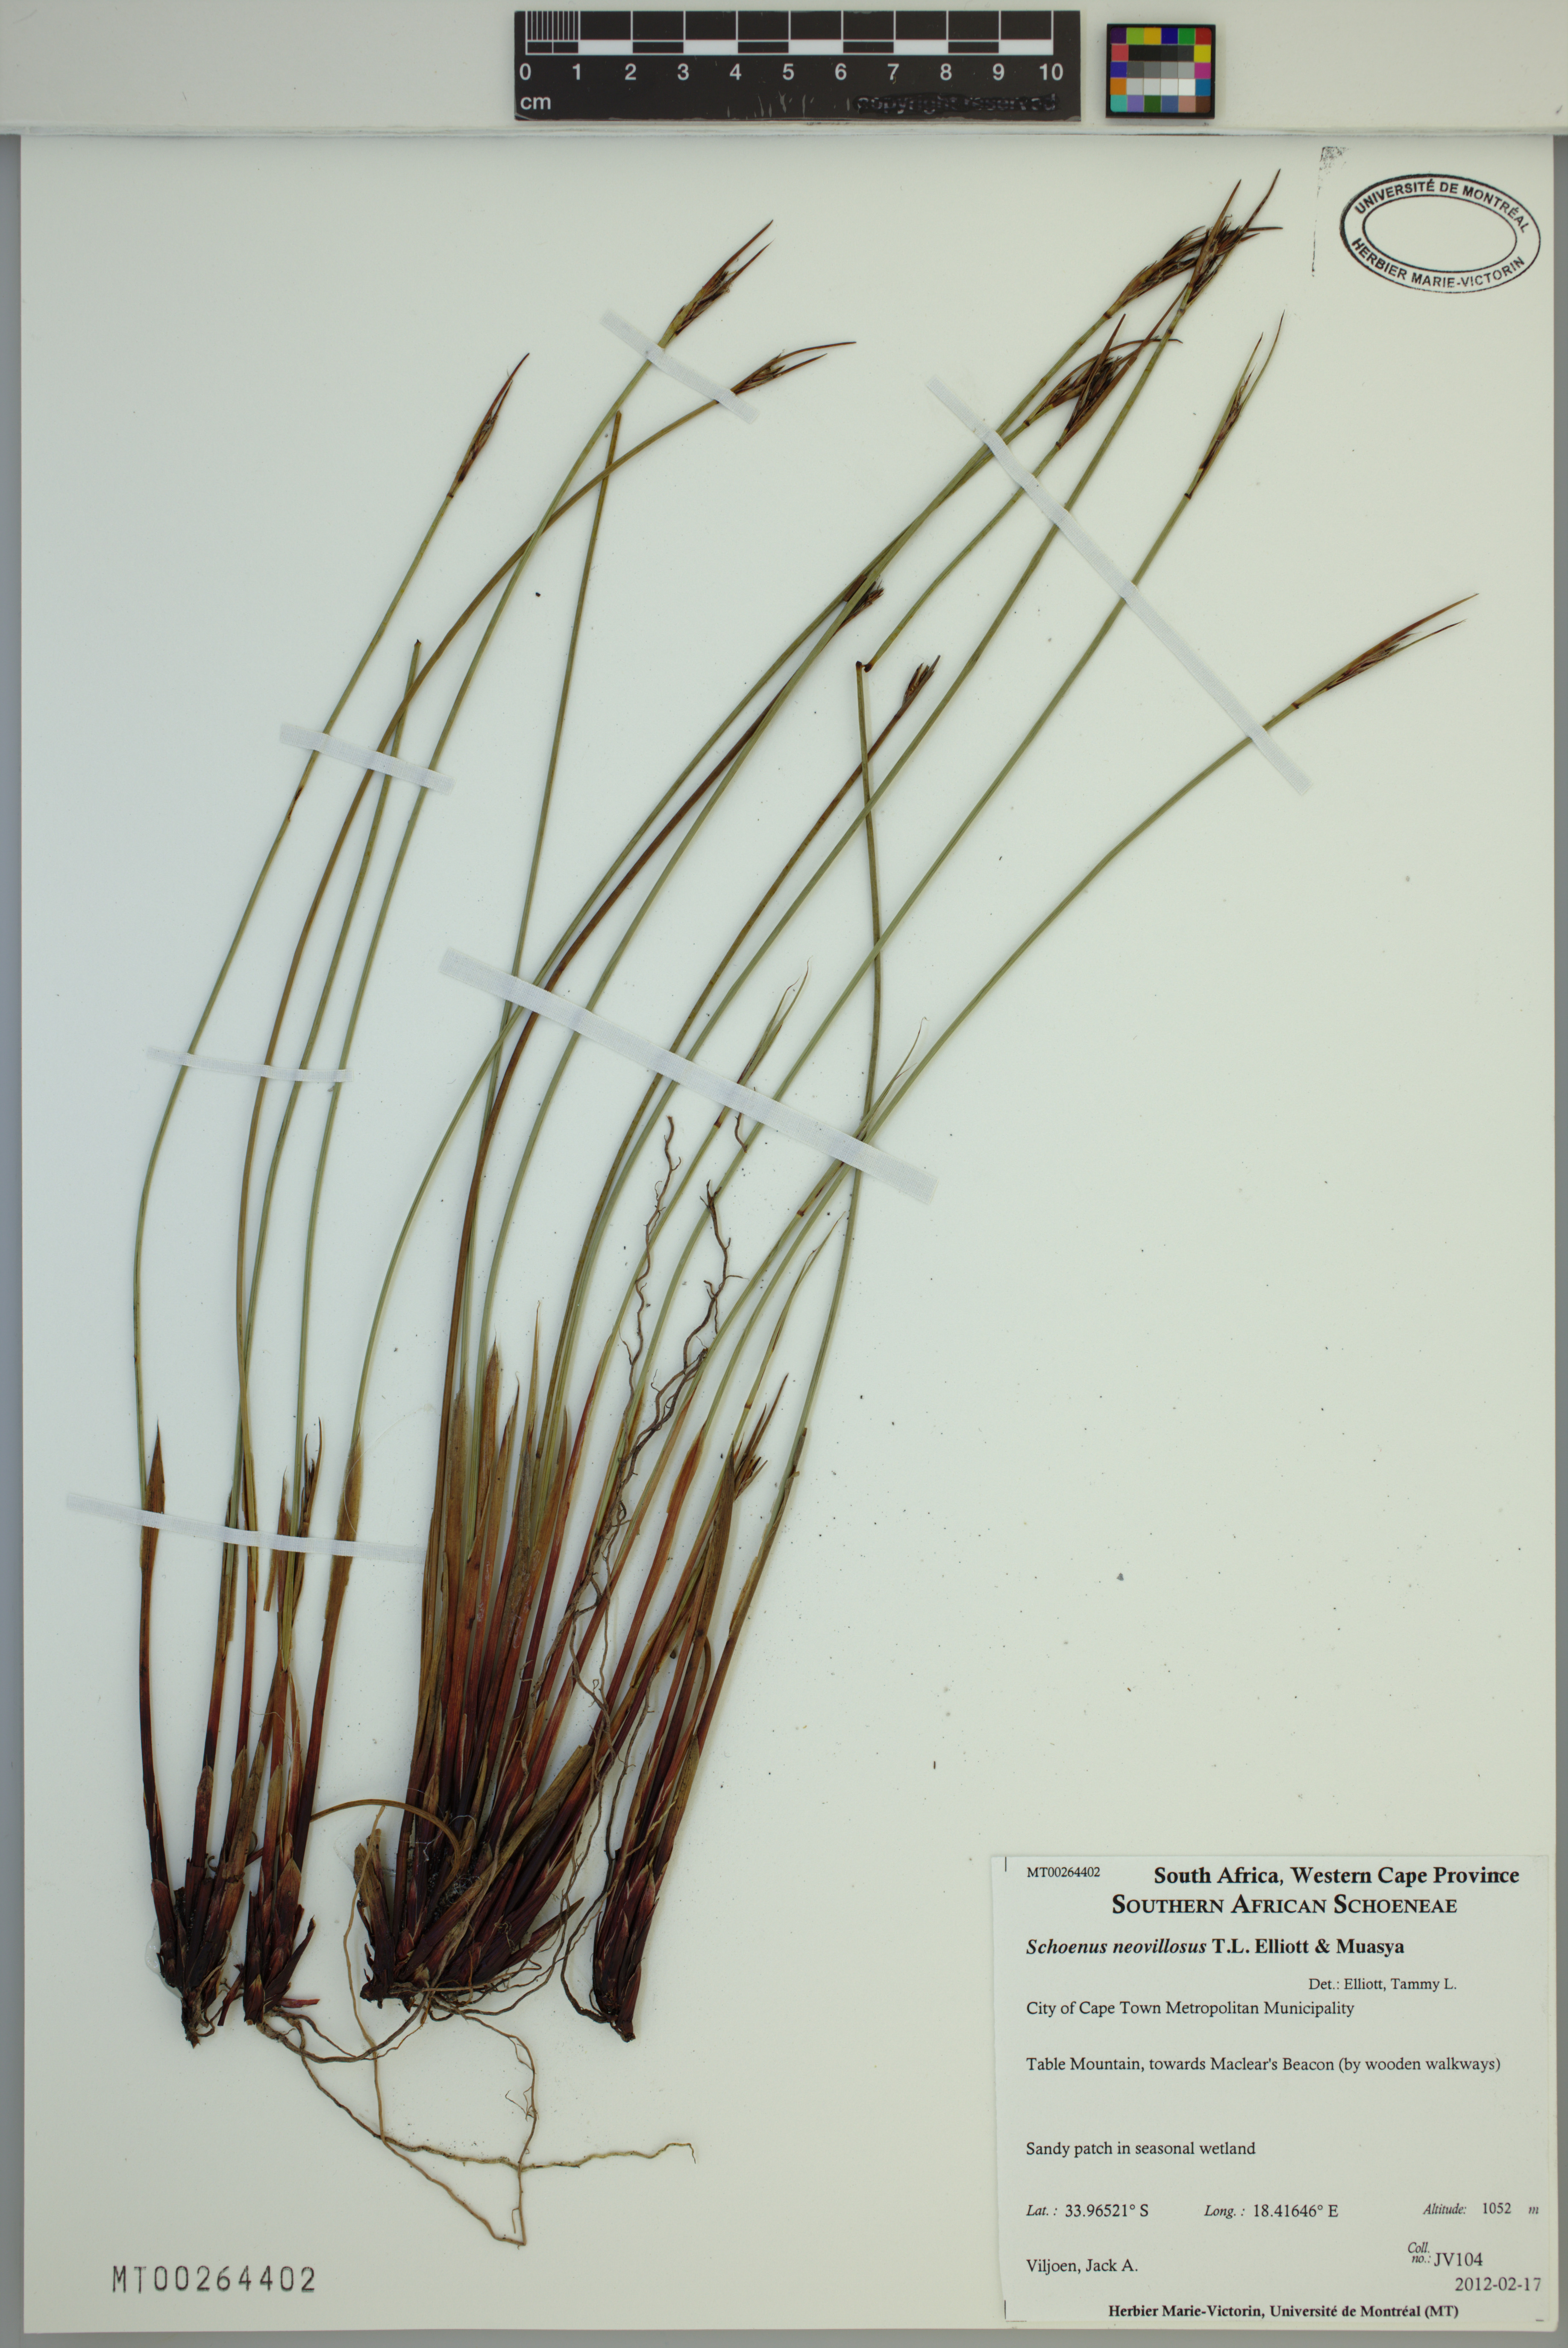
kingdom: Plantae
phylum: Tracheophyta
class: Liliopsida
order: Poales
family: Cyperaceae
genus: Schoenus
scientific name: Schoenus neovillosus
